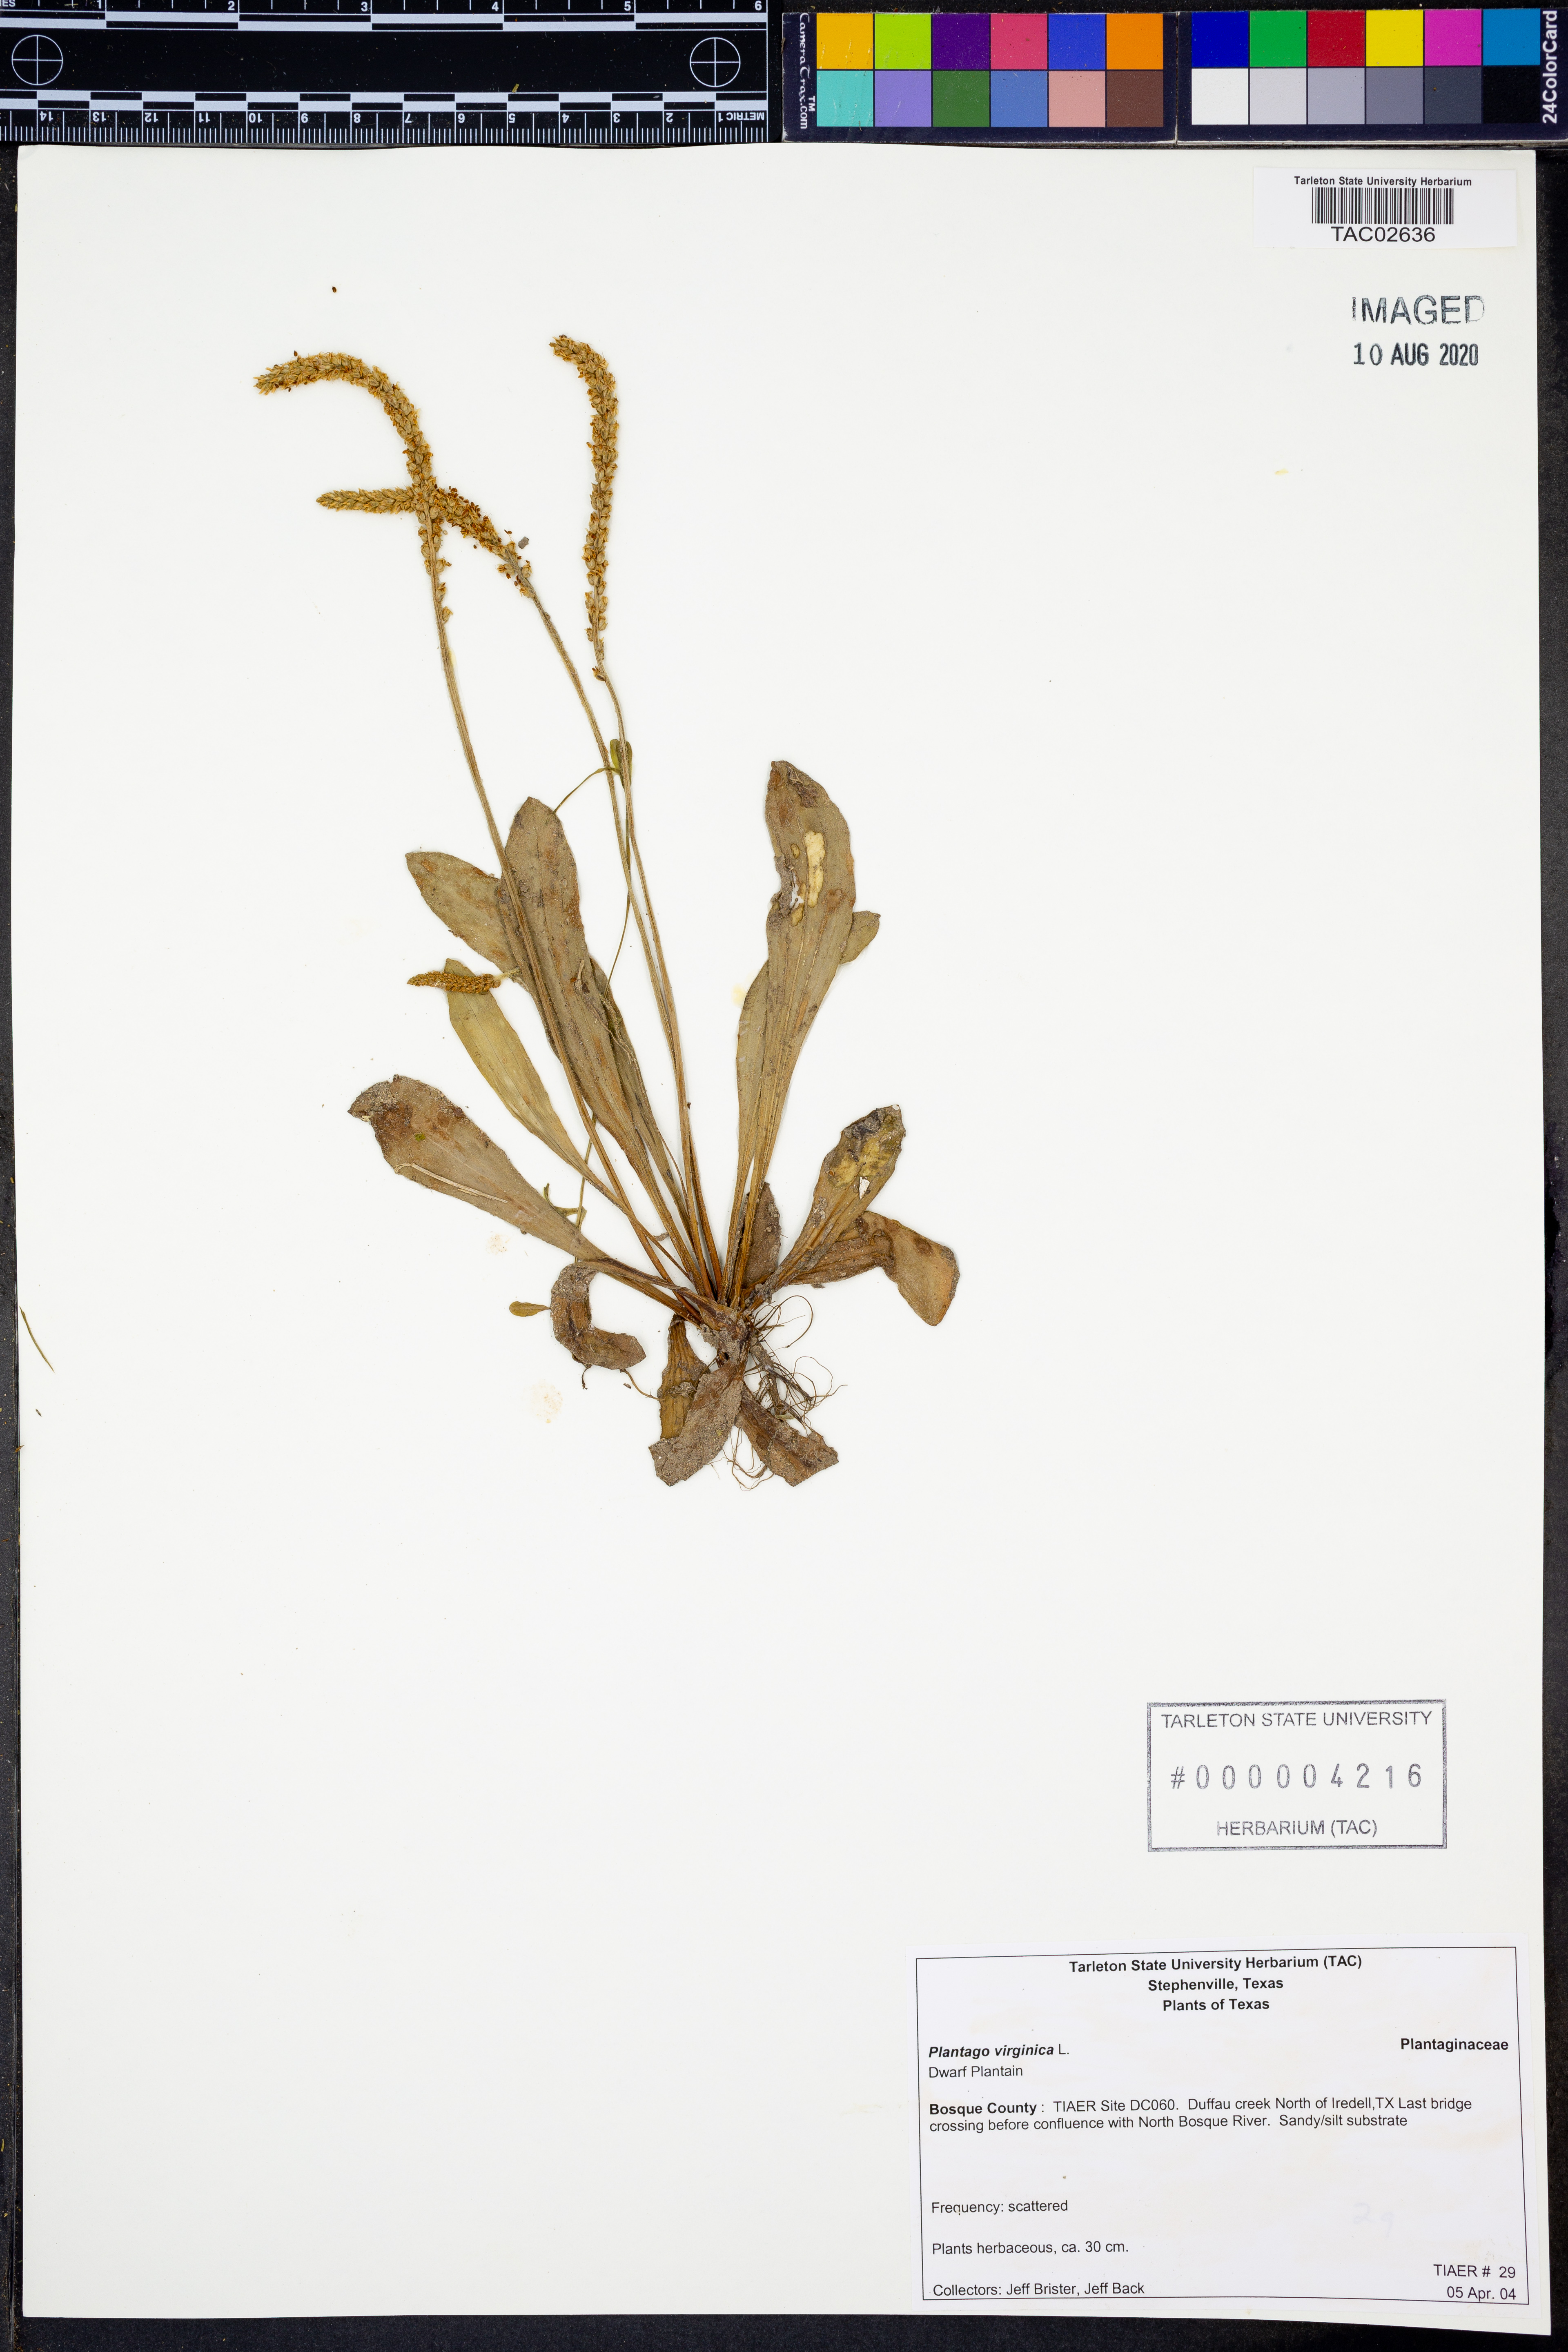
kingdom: Plantae
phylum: Tracheophyta
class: Magnoliopsida
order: Lamiales
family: Plantaginaceae
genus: Plantago
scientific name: Plantago virginica
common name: Hoary plantain
